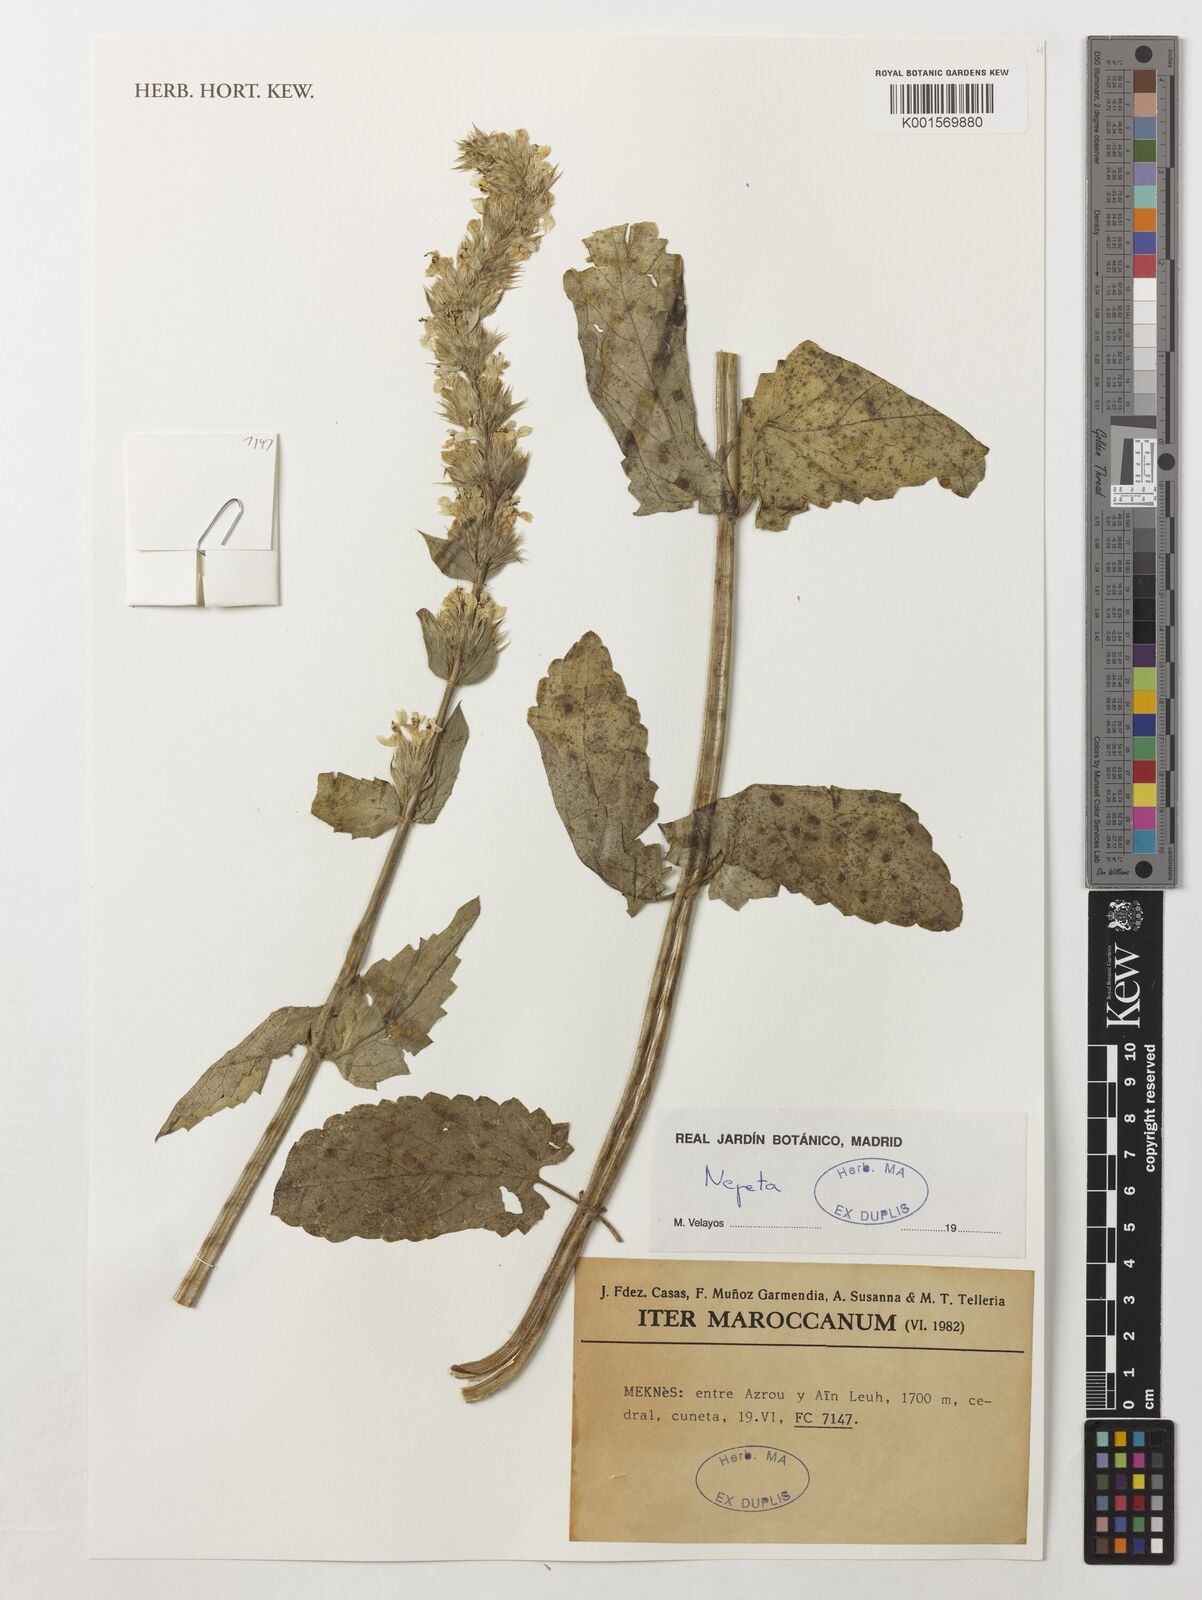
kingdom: Plantae
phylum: Tracheophyta
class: Magnoliopsida
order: Lamiales
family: Lamiaceae
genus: Nepeta
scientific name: Nepeta
